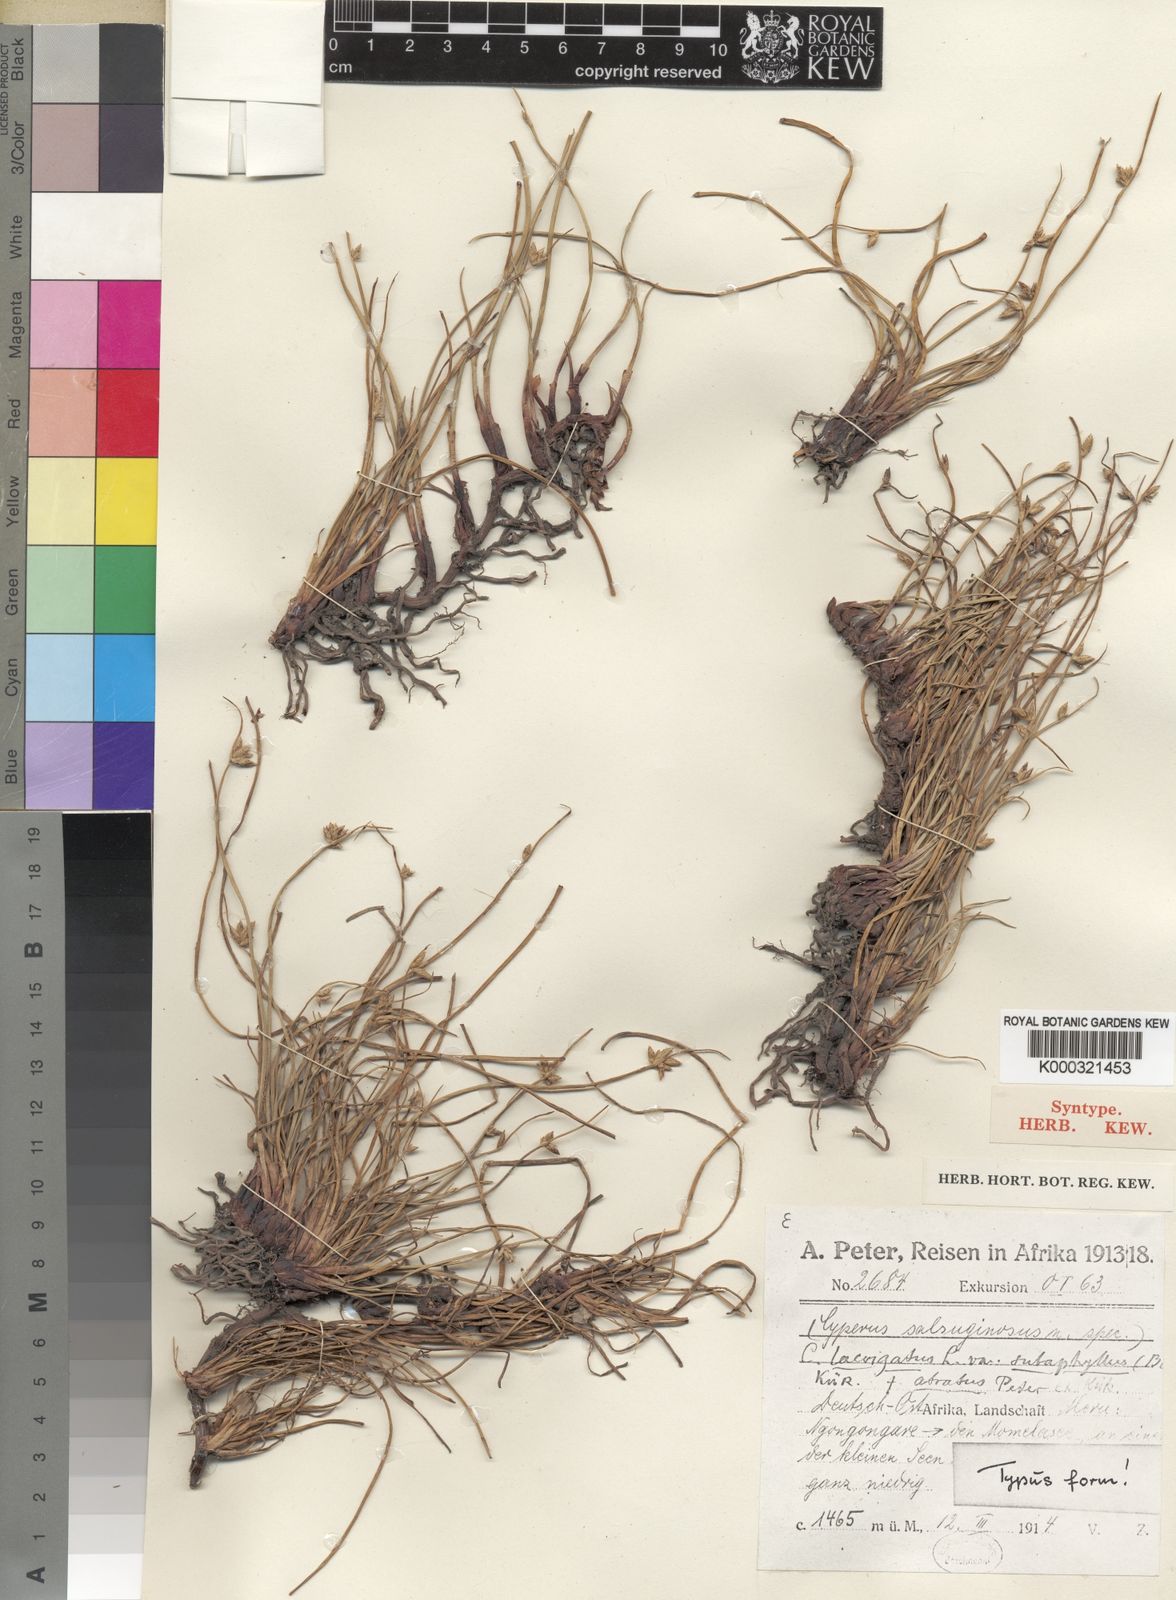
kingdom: Plantae
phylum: Tracheophyta
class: Liliopsida
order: Poales
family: Cyperaceae
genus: Cyperus
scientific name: Cyperus laevigatus
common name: Smooth flat sedge
